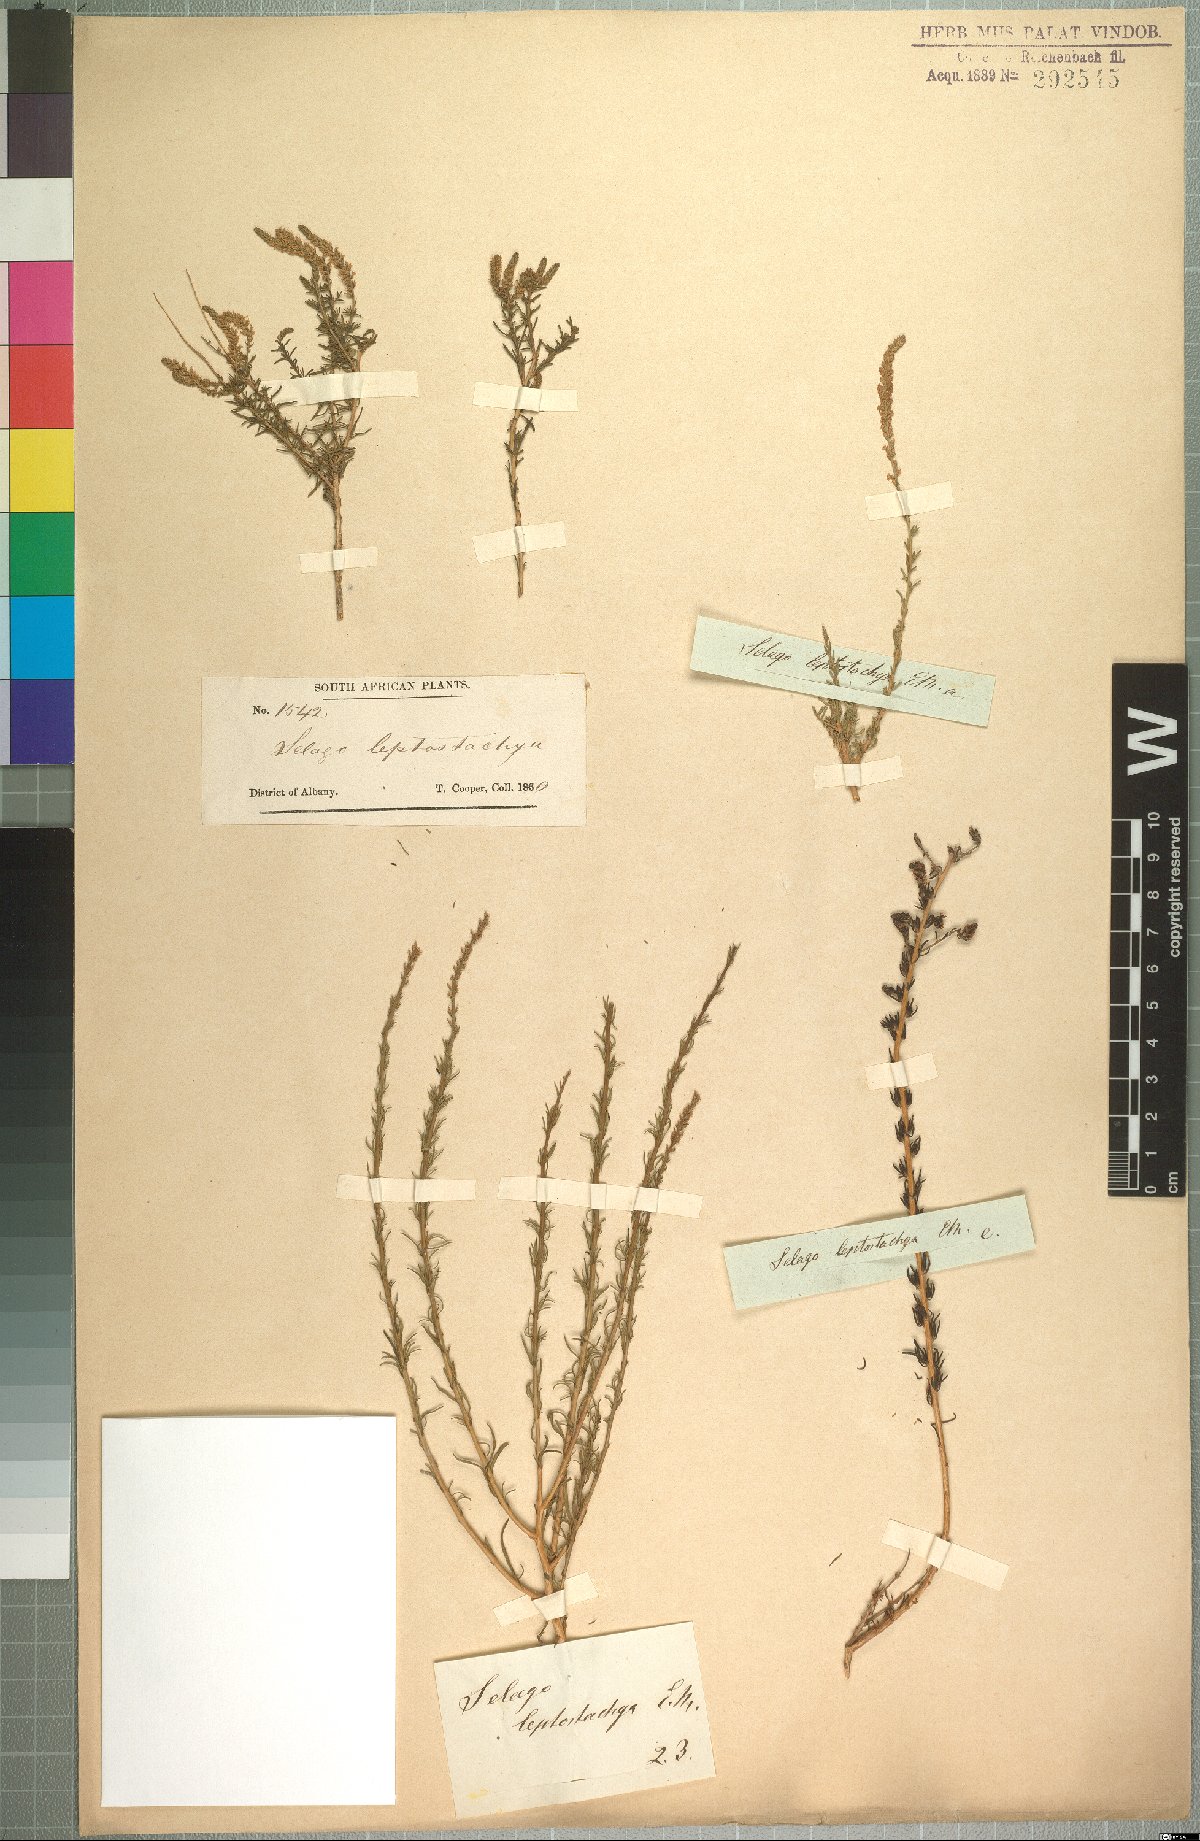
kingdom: Plantae
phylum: Tracheophyta
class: Magnoliopsida
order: Lamiales
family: Scrophulariaceae
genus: Selago
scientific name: Selago geniculata
